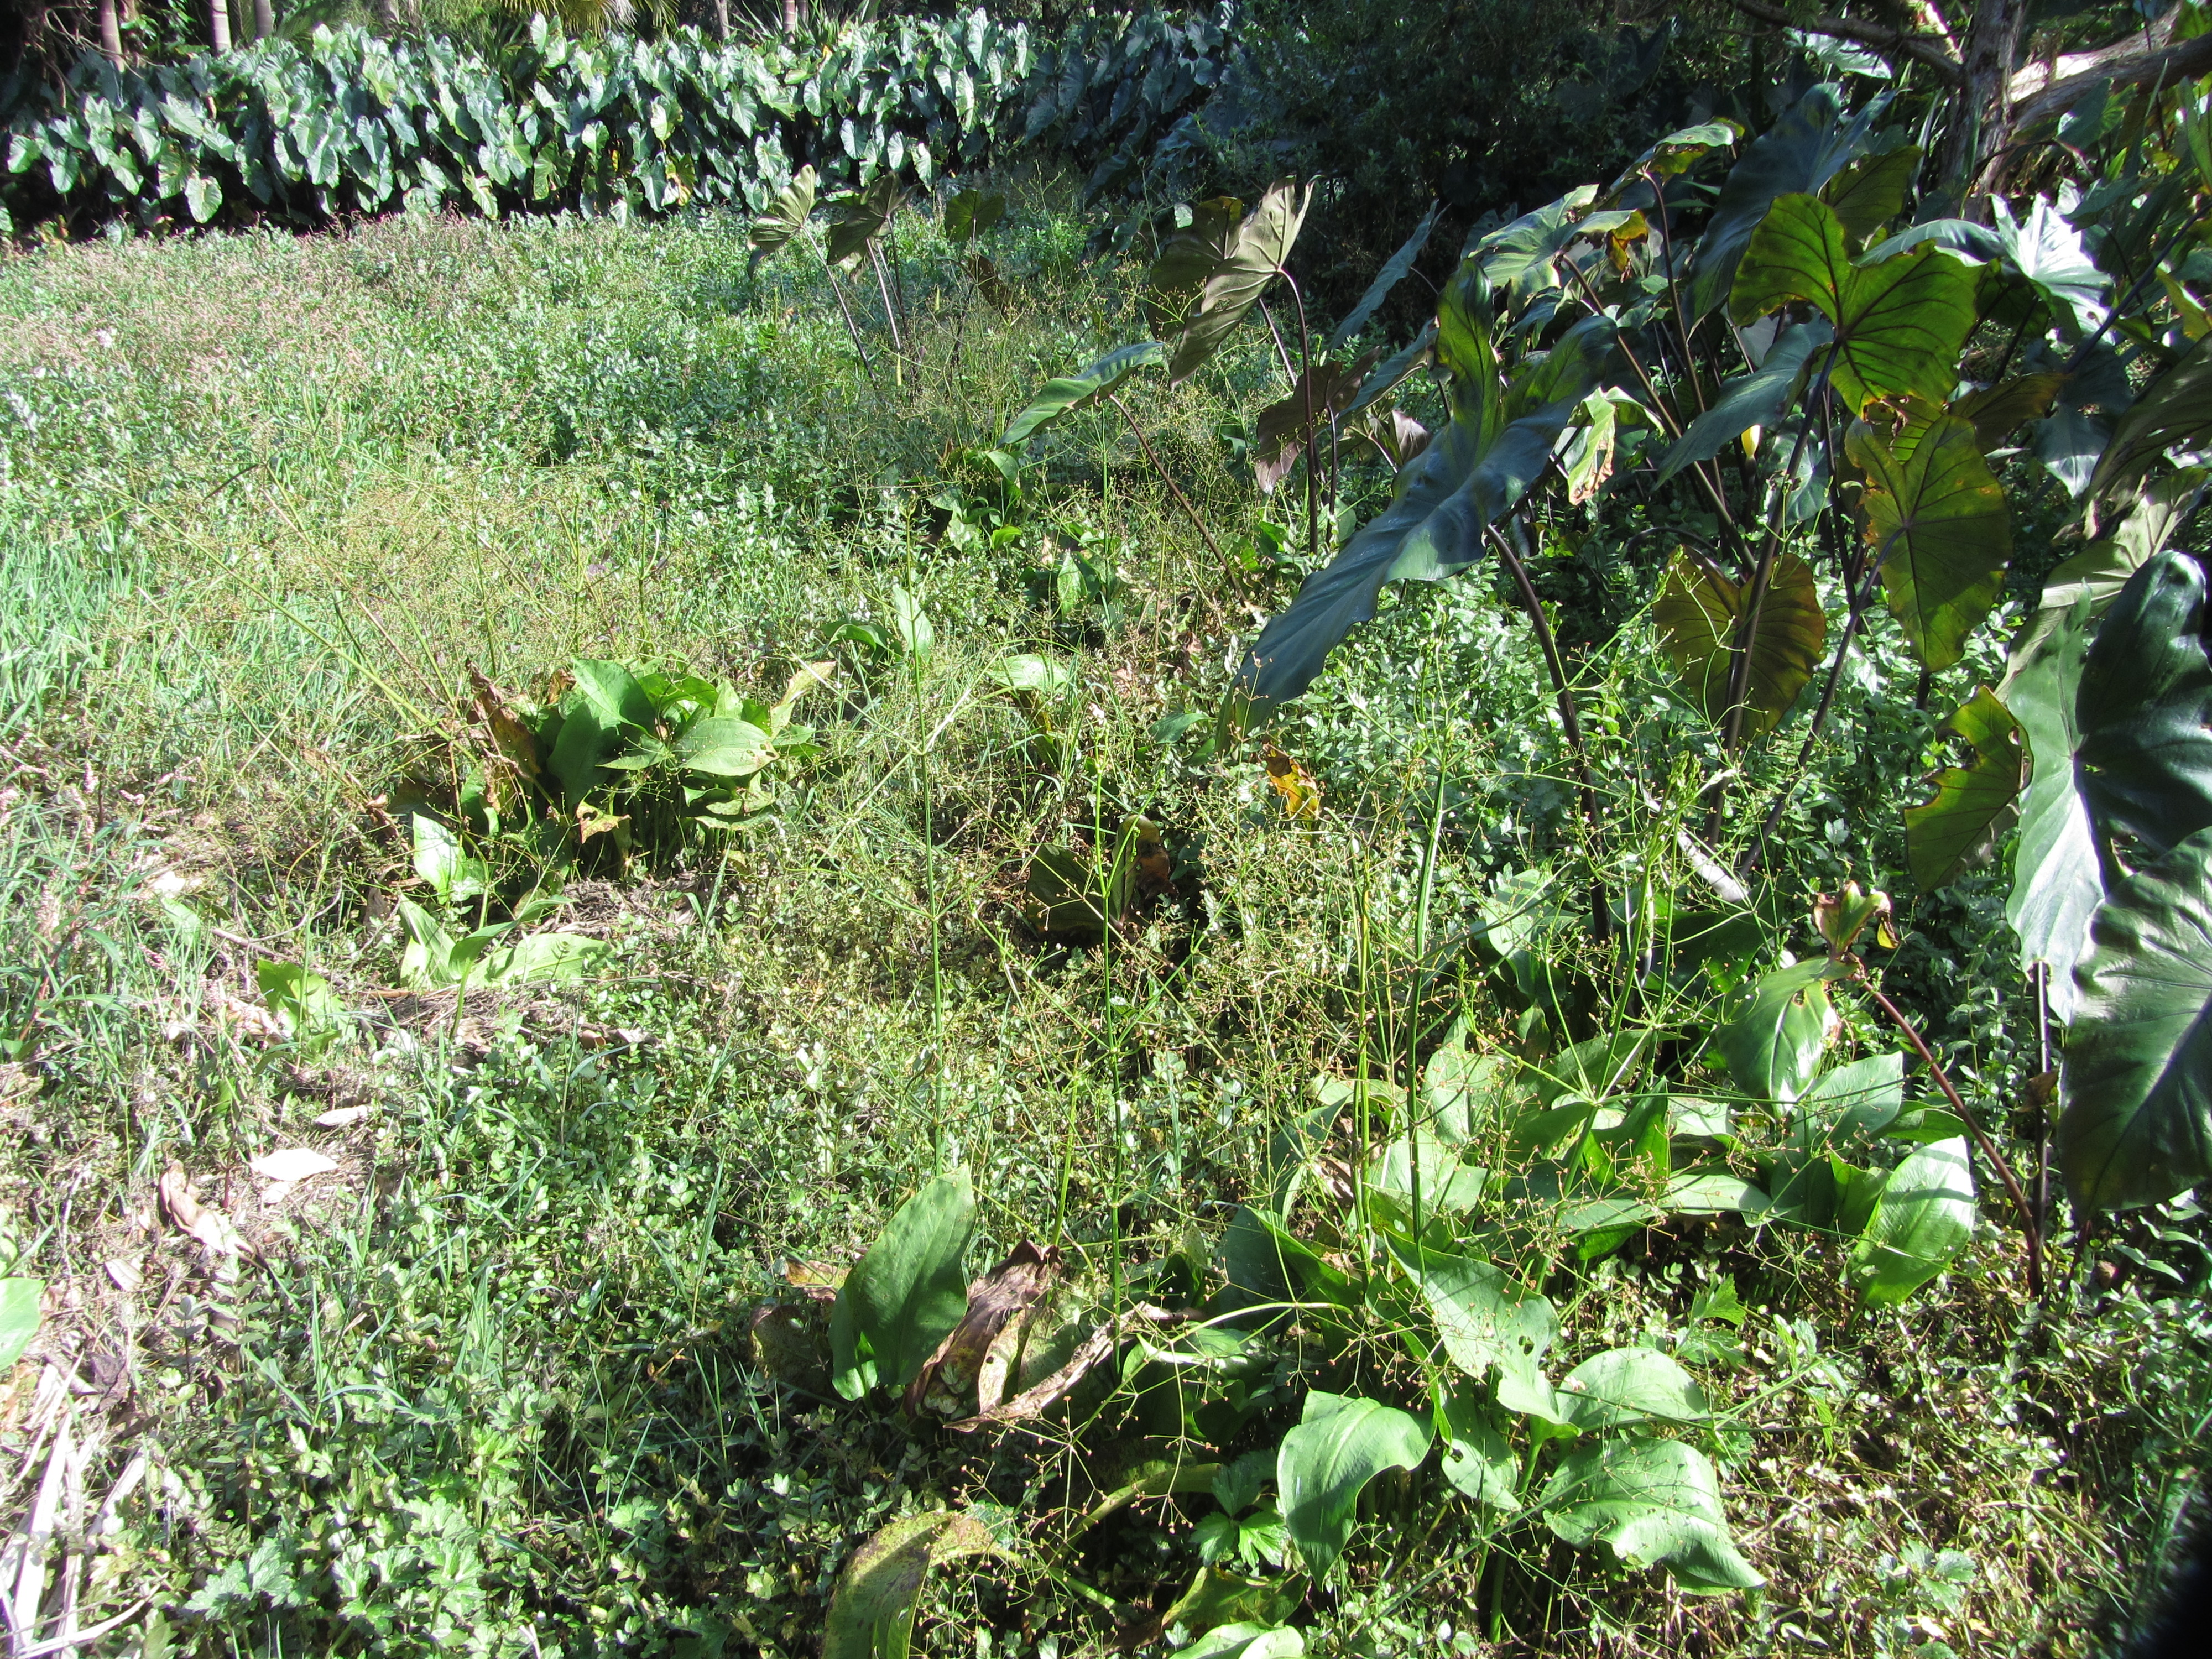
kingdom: Plantae
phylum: Tracheophyta
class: Liliopsida
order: Alismatales
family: Alismataceae
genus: Alisma
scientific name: Alisma plantago-aquatica
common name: Water-plantain
